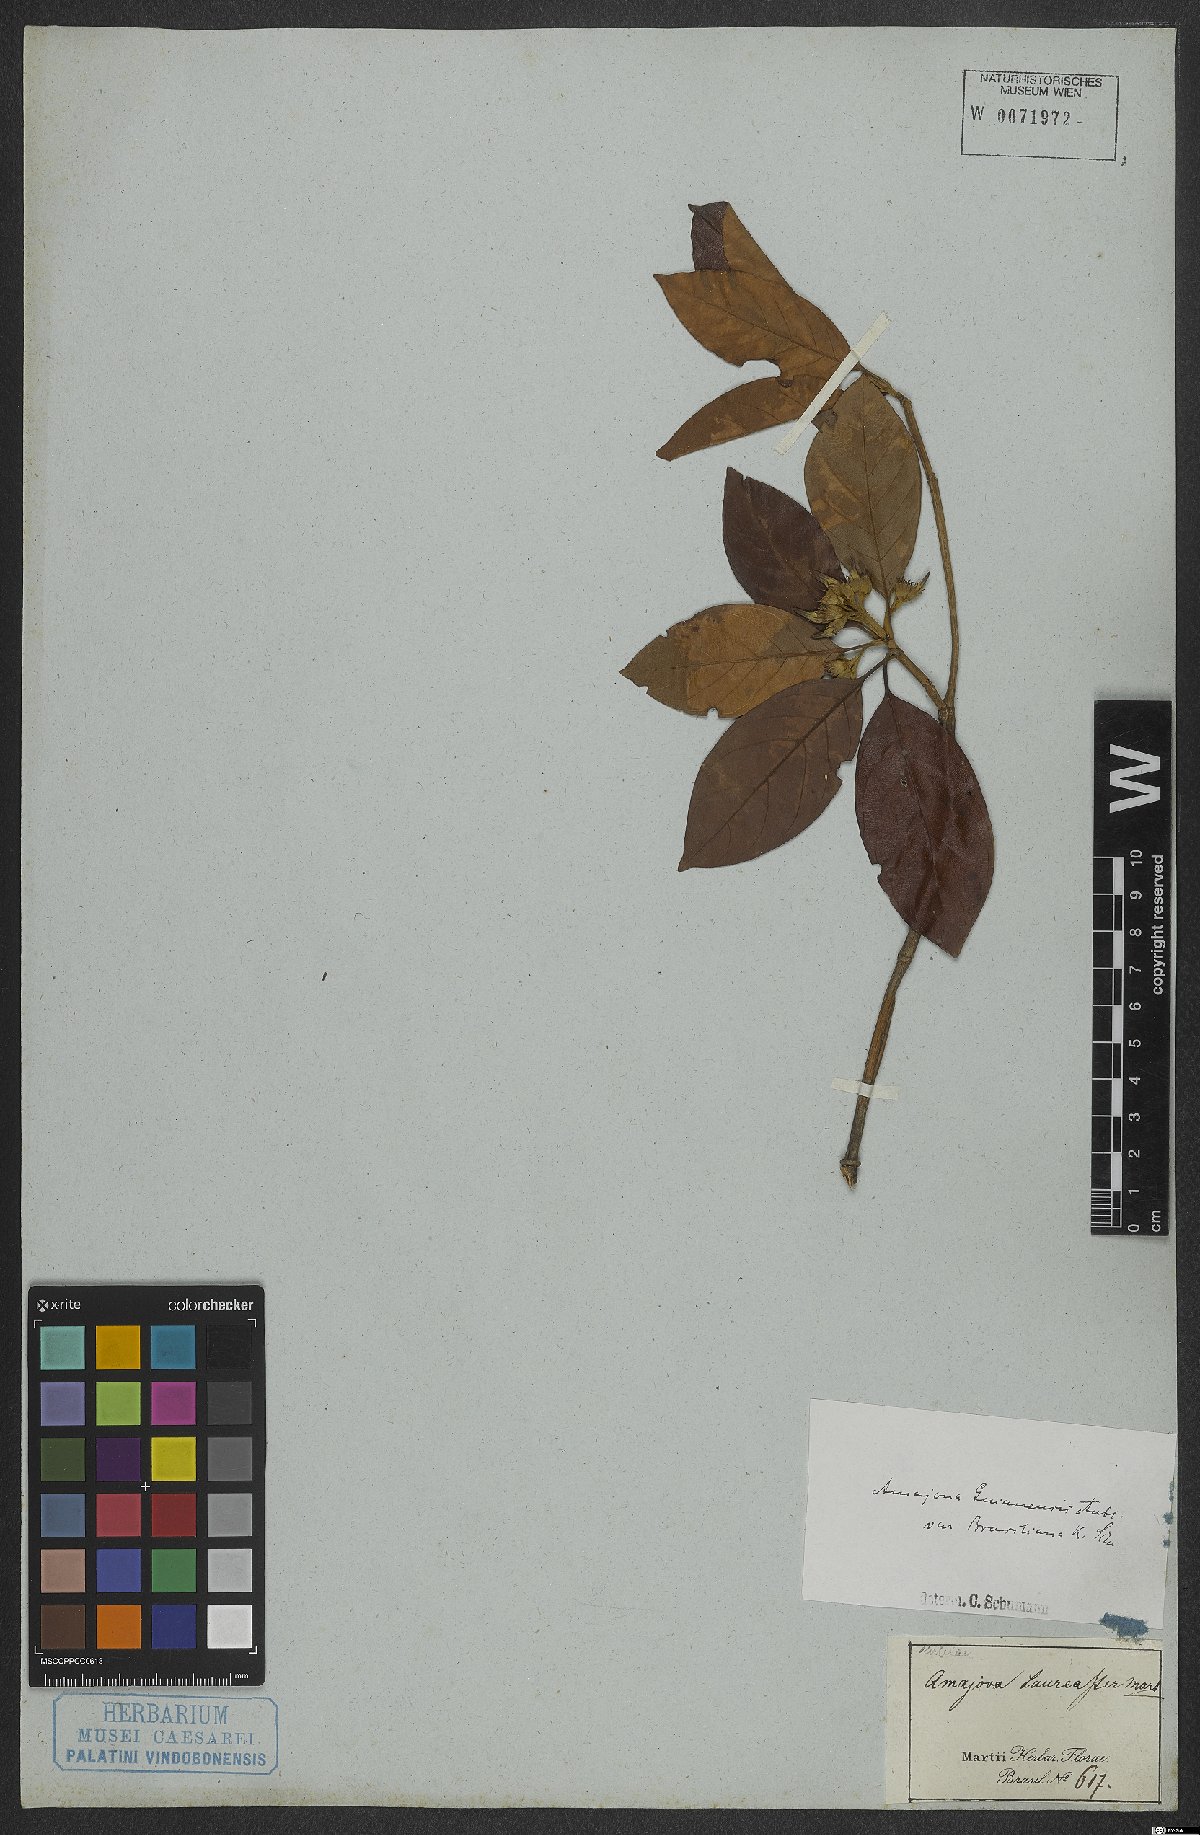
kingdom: Plantae
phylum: Tracheophyta
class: Magnoliopsida
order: Gentianales
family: Rubiaceae
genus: Amaioua
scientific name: Amaioua guianensis
